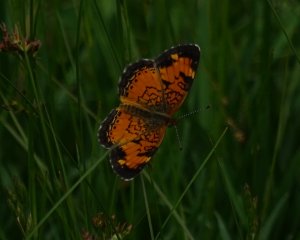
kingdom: Animalia
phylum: Arthropoda
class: Insecta
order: Lepidoptera
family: Nymphalidae
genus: Phyciodes
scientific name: Phyciodes tharos
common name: Pearl Crescent
